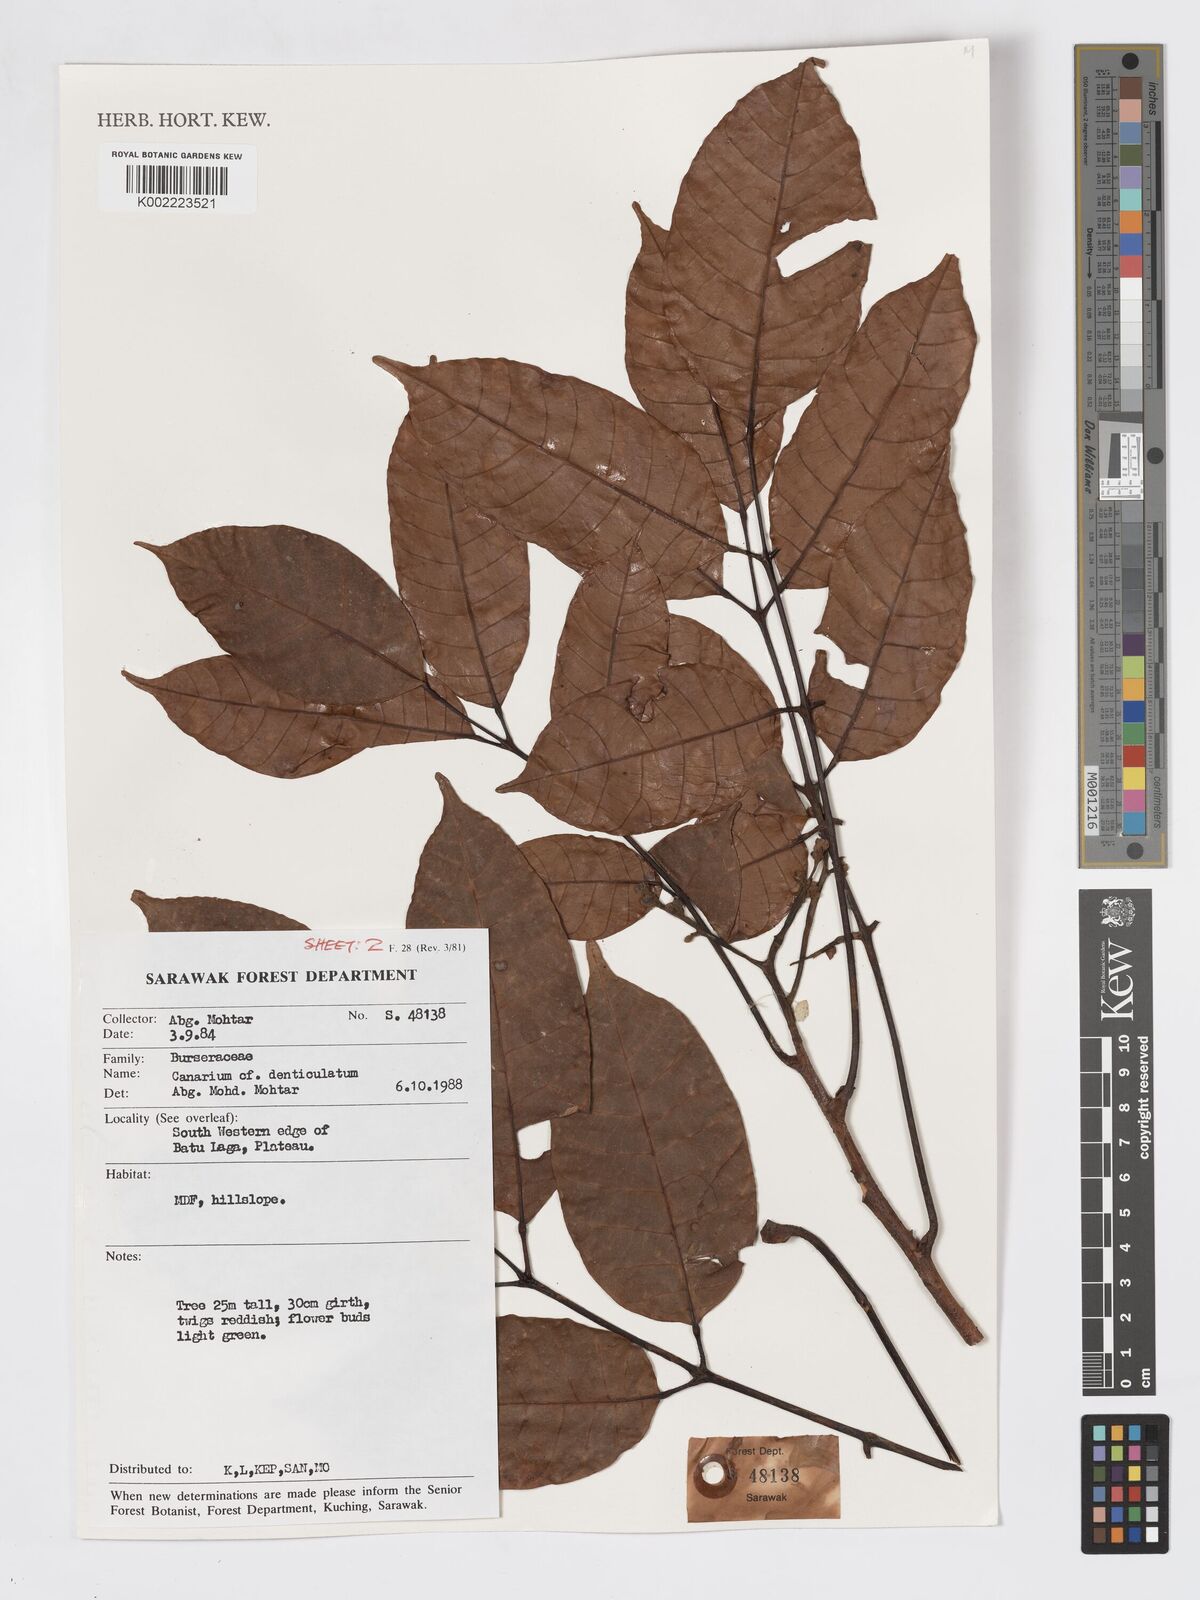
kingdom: Plantae
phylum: Tracheophyta
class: Magnoliopsida
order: Sapindales
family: Burseraceae
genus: Canarium
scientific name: Canarium denticulatum
